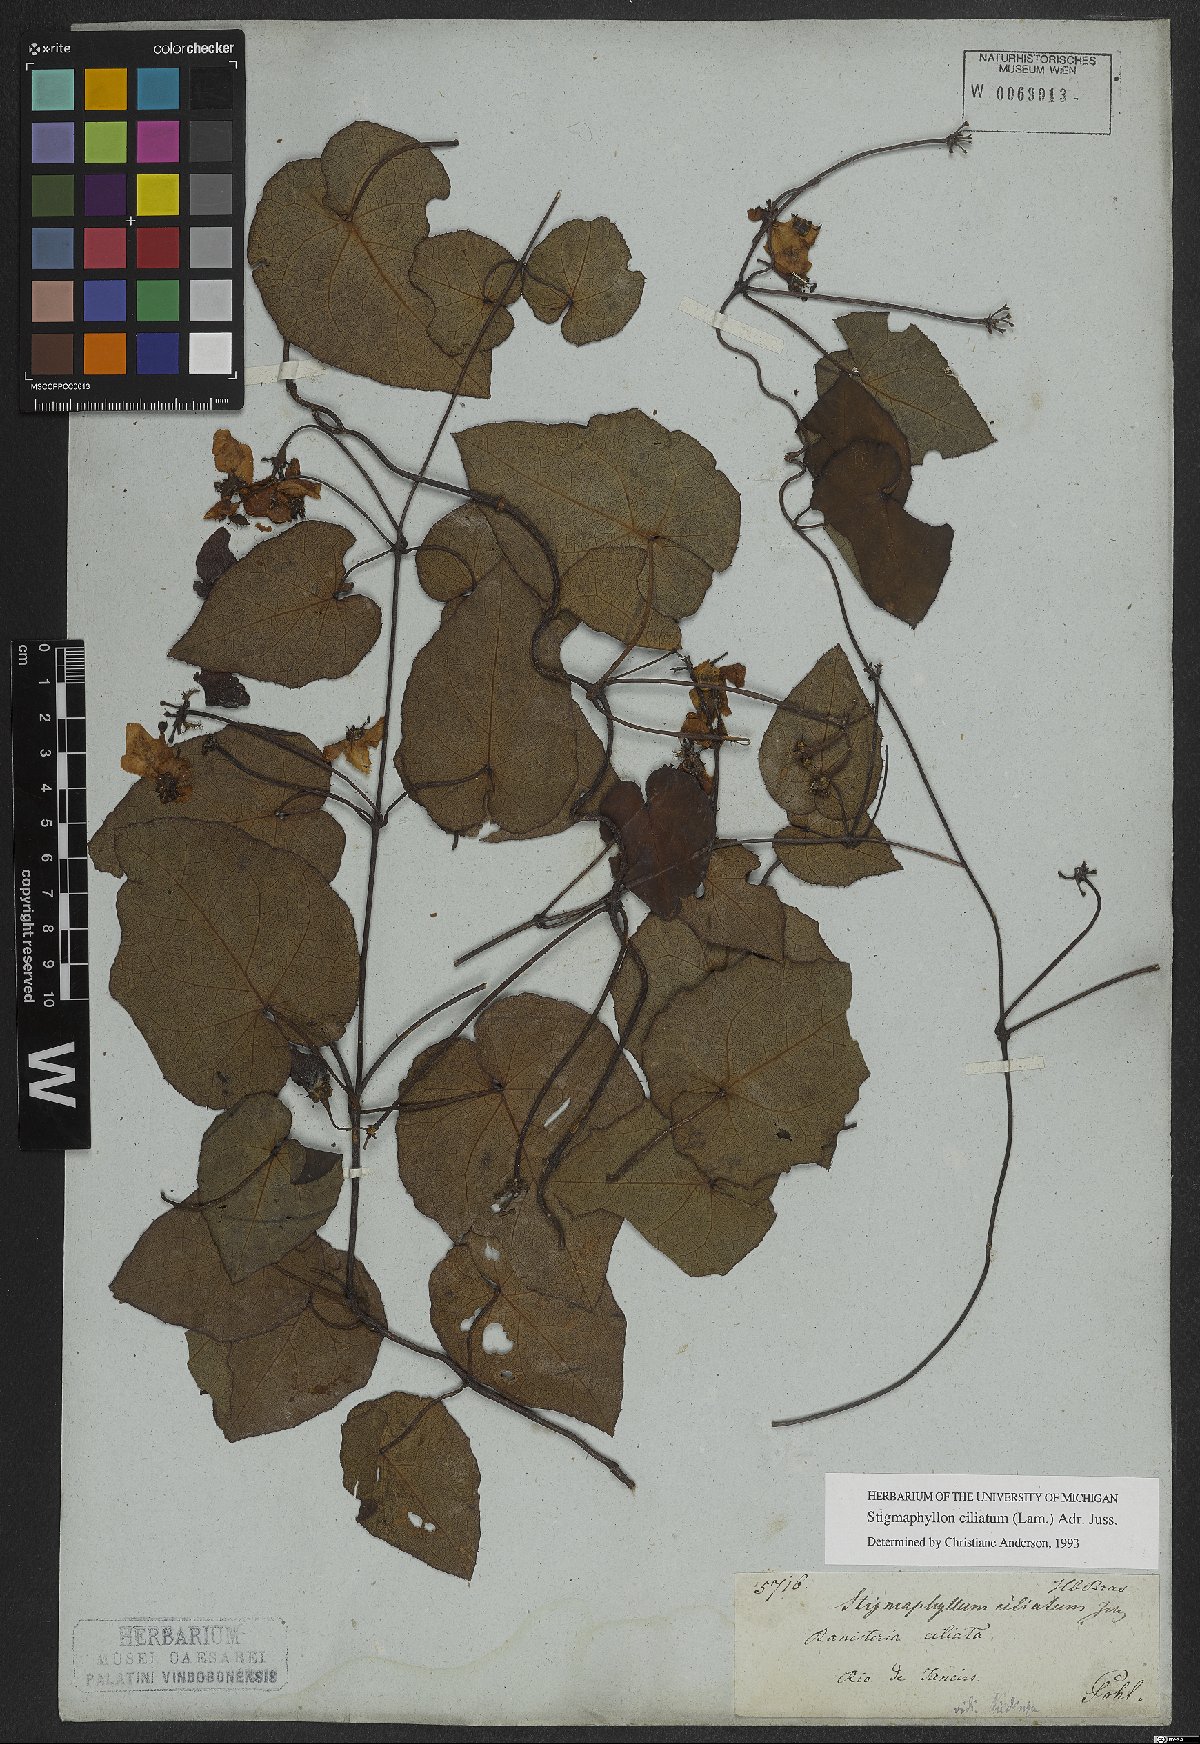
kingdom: Plantae
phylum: Tracheophyta
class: Magnoliopsida
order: Malpighiales
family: Malpighiaceae
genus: Stigmaphyllon
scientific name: Stigmaphyllon ciliatum
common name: Amazonvine
